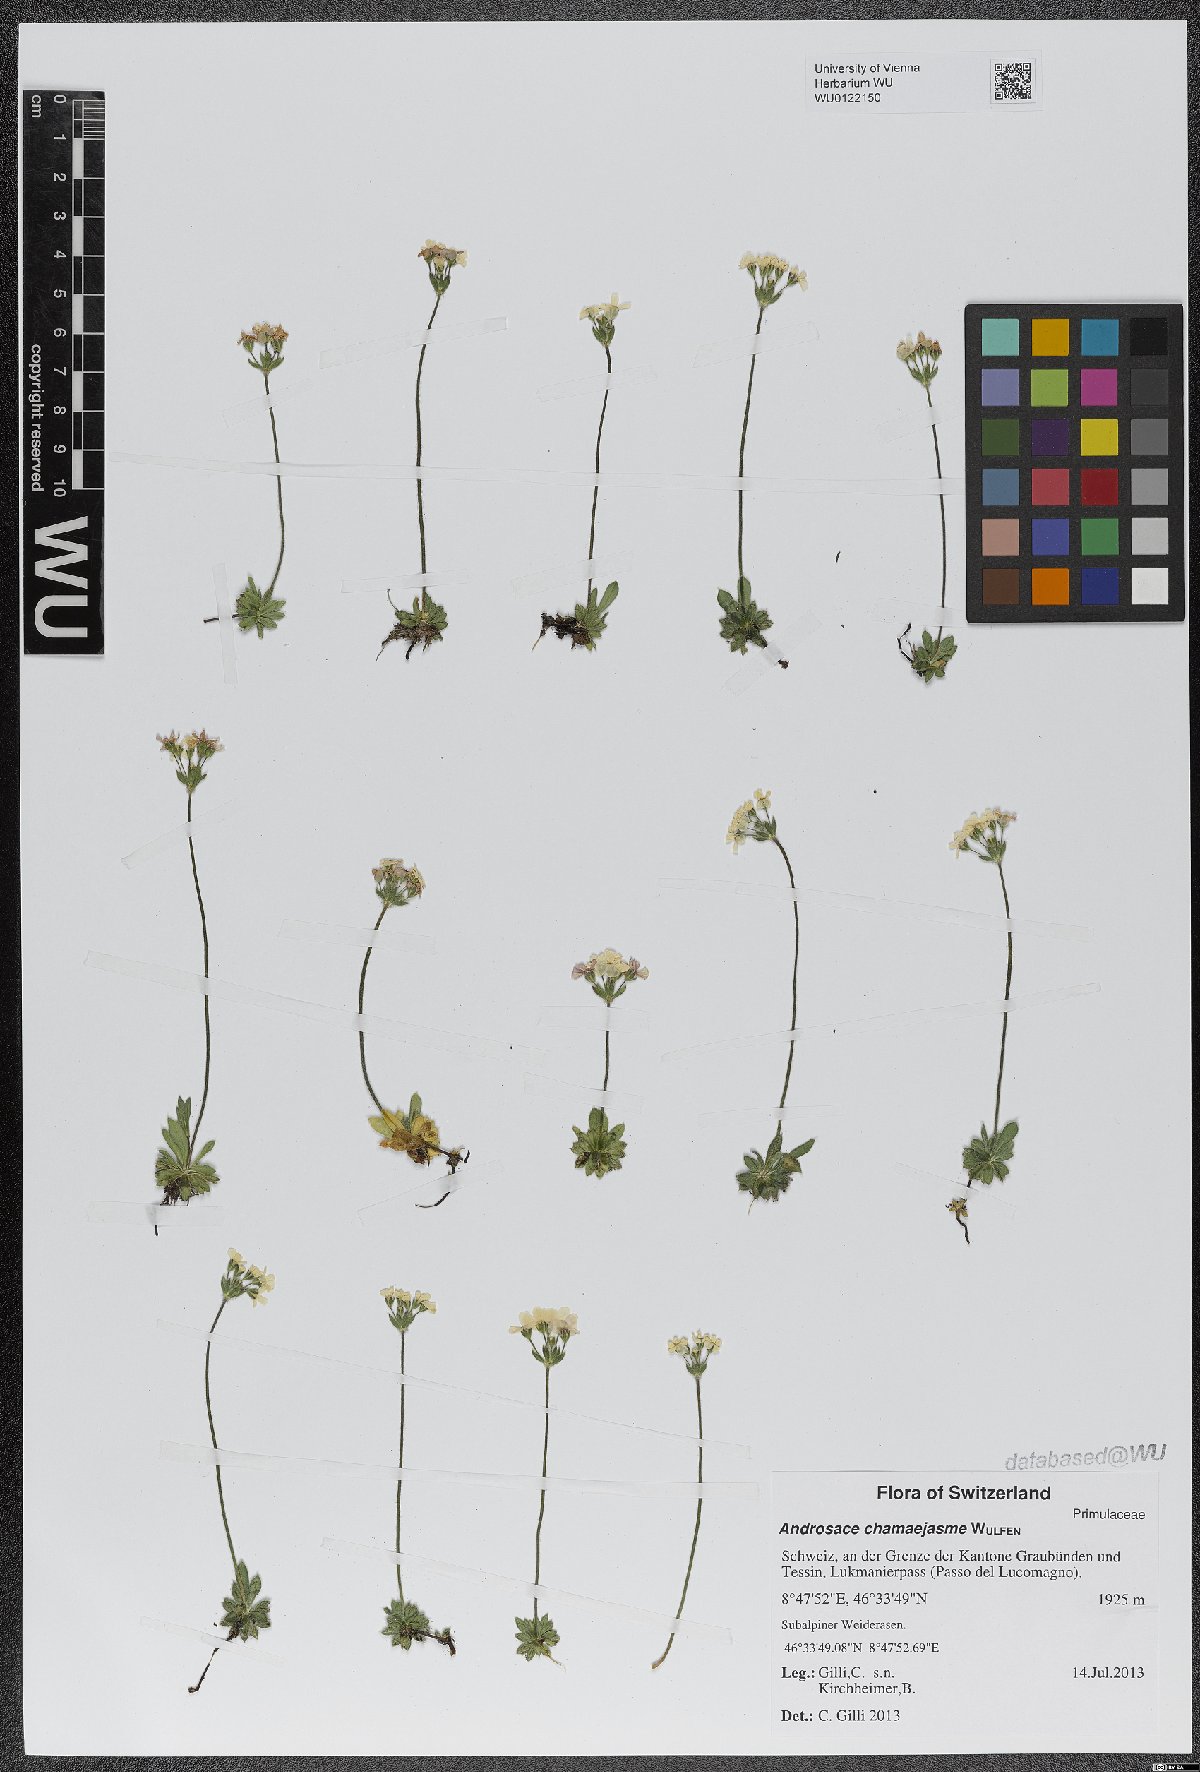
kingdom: Plantae
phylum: Tracheophyta
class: Magnoliopsida
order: Ericales
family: Primulaceae
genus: Androsace
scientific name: Androsace chamaejasme
